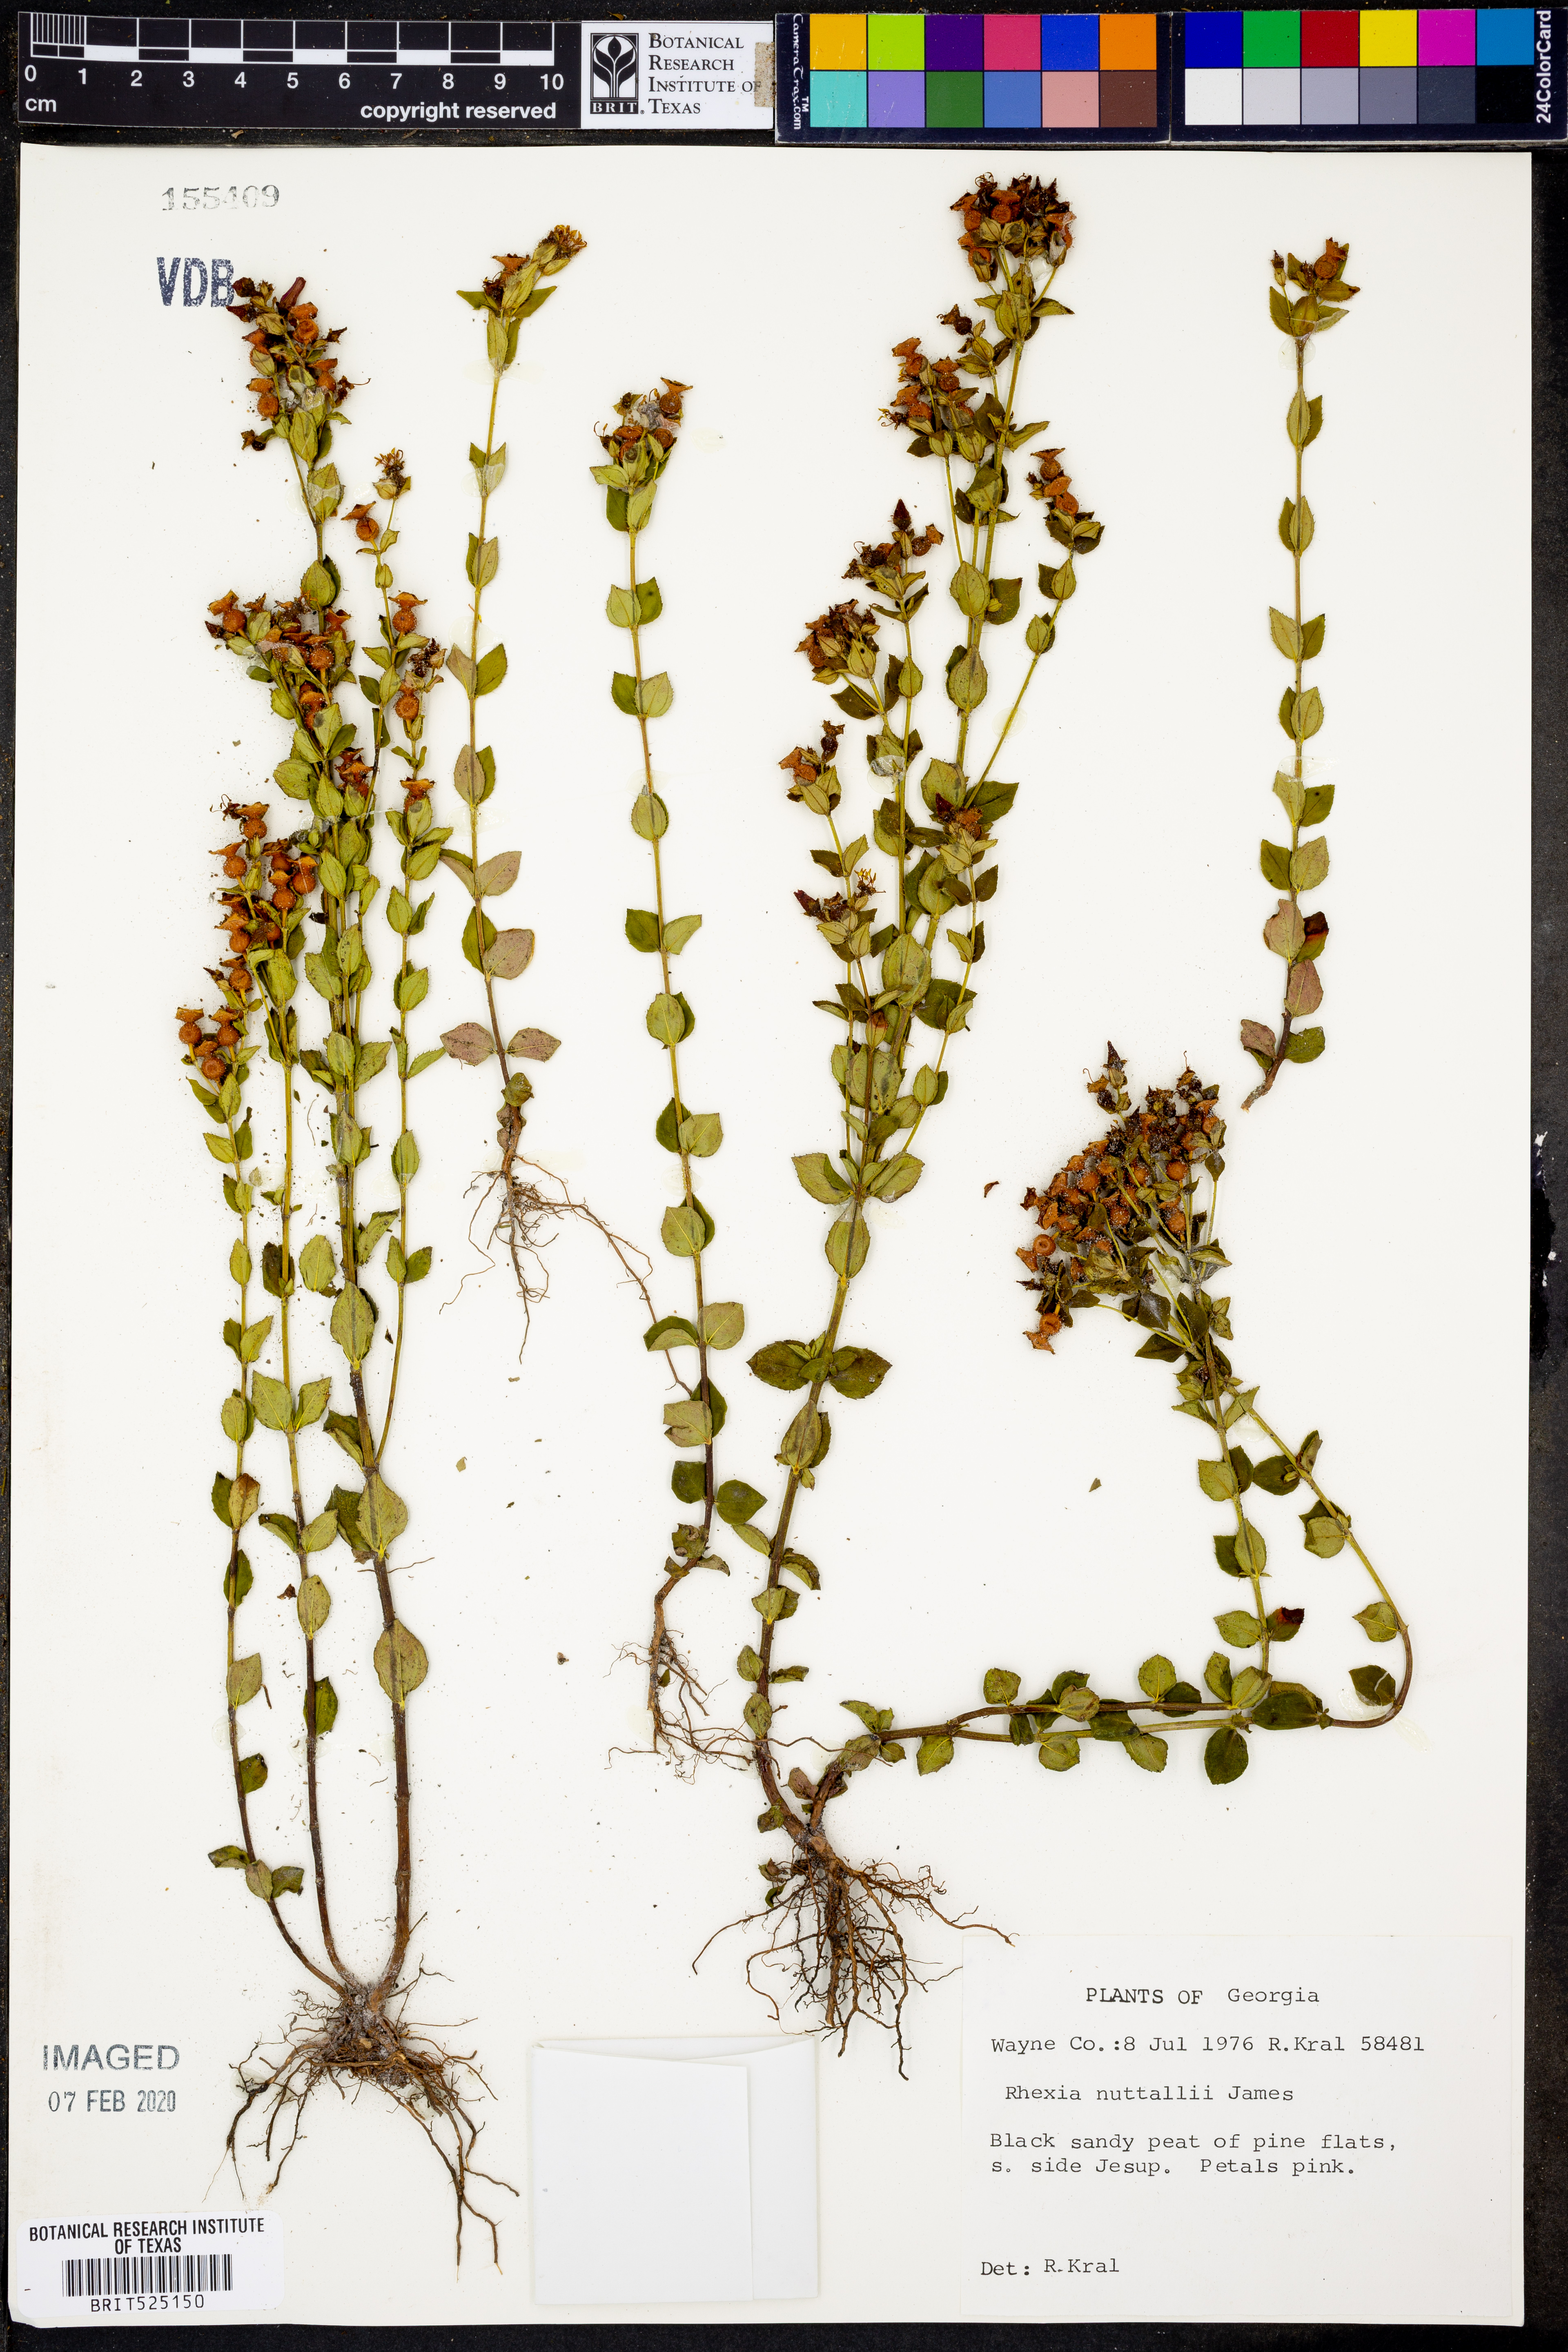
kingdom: Plantae
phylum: Tracheophyta
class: Magnoliopsida
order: Myrtales
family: Melastomataceae
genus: Rhexia
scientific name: Rhexia nuttallii
